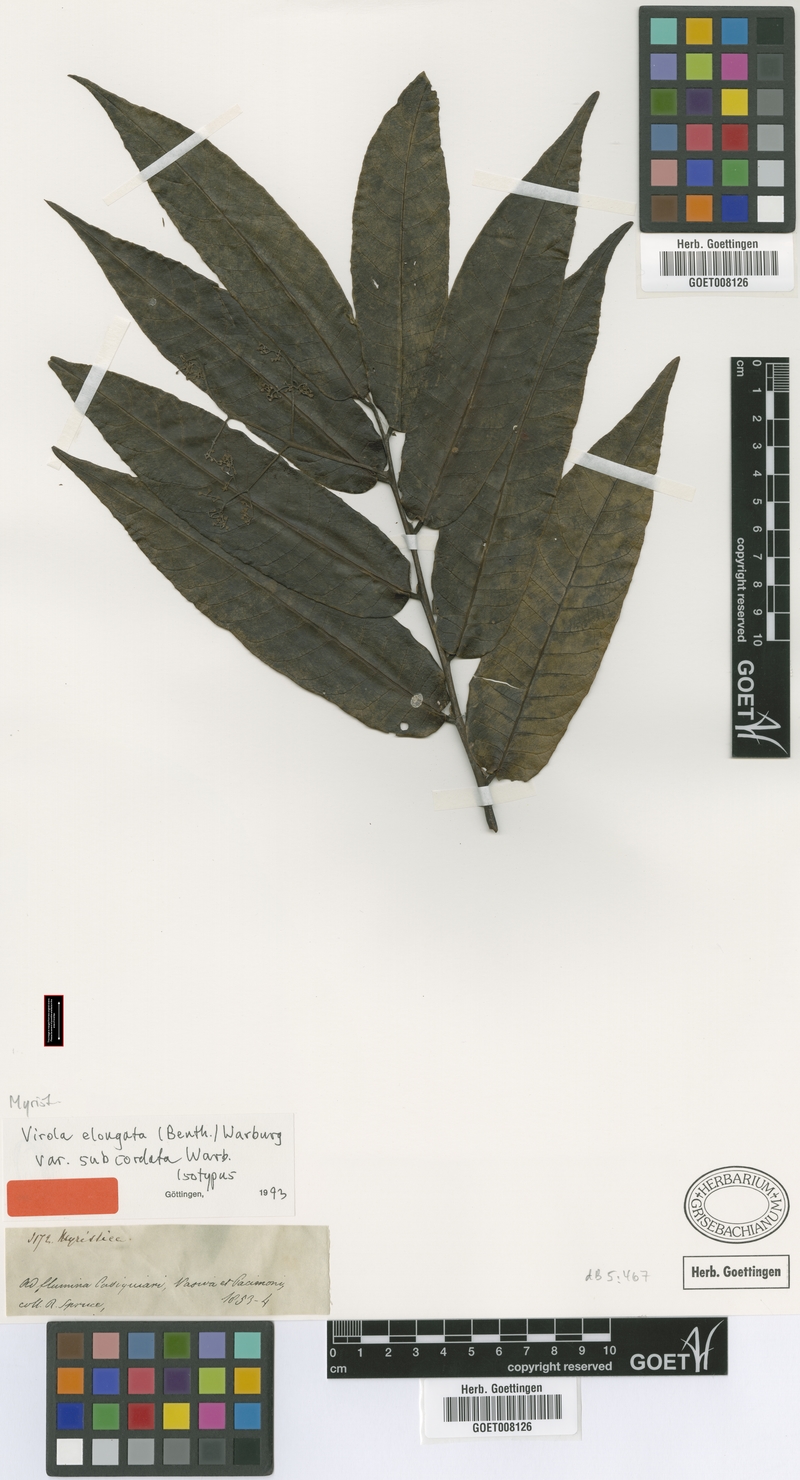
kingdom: Plantae
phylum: Tracheophyta
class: Magnoliopsida
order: Magnoliales
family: Myristicaceae
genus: Virola
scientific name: Virola elongata
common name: Sacred virola
